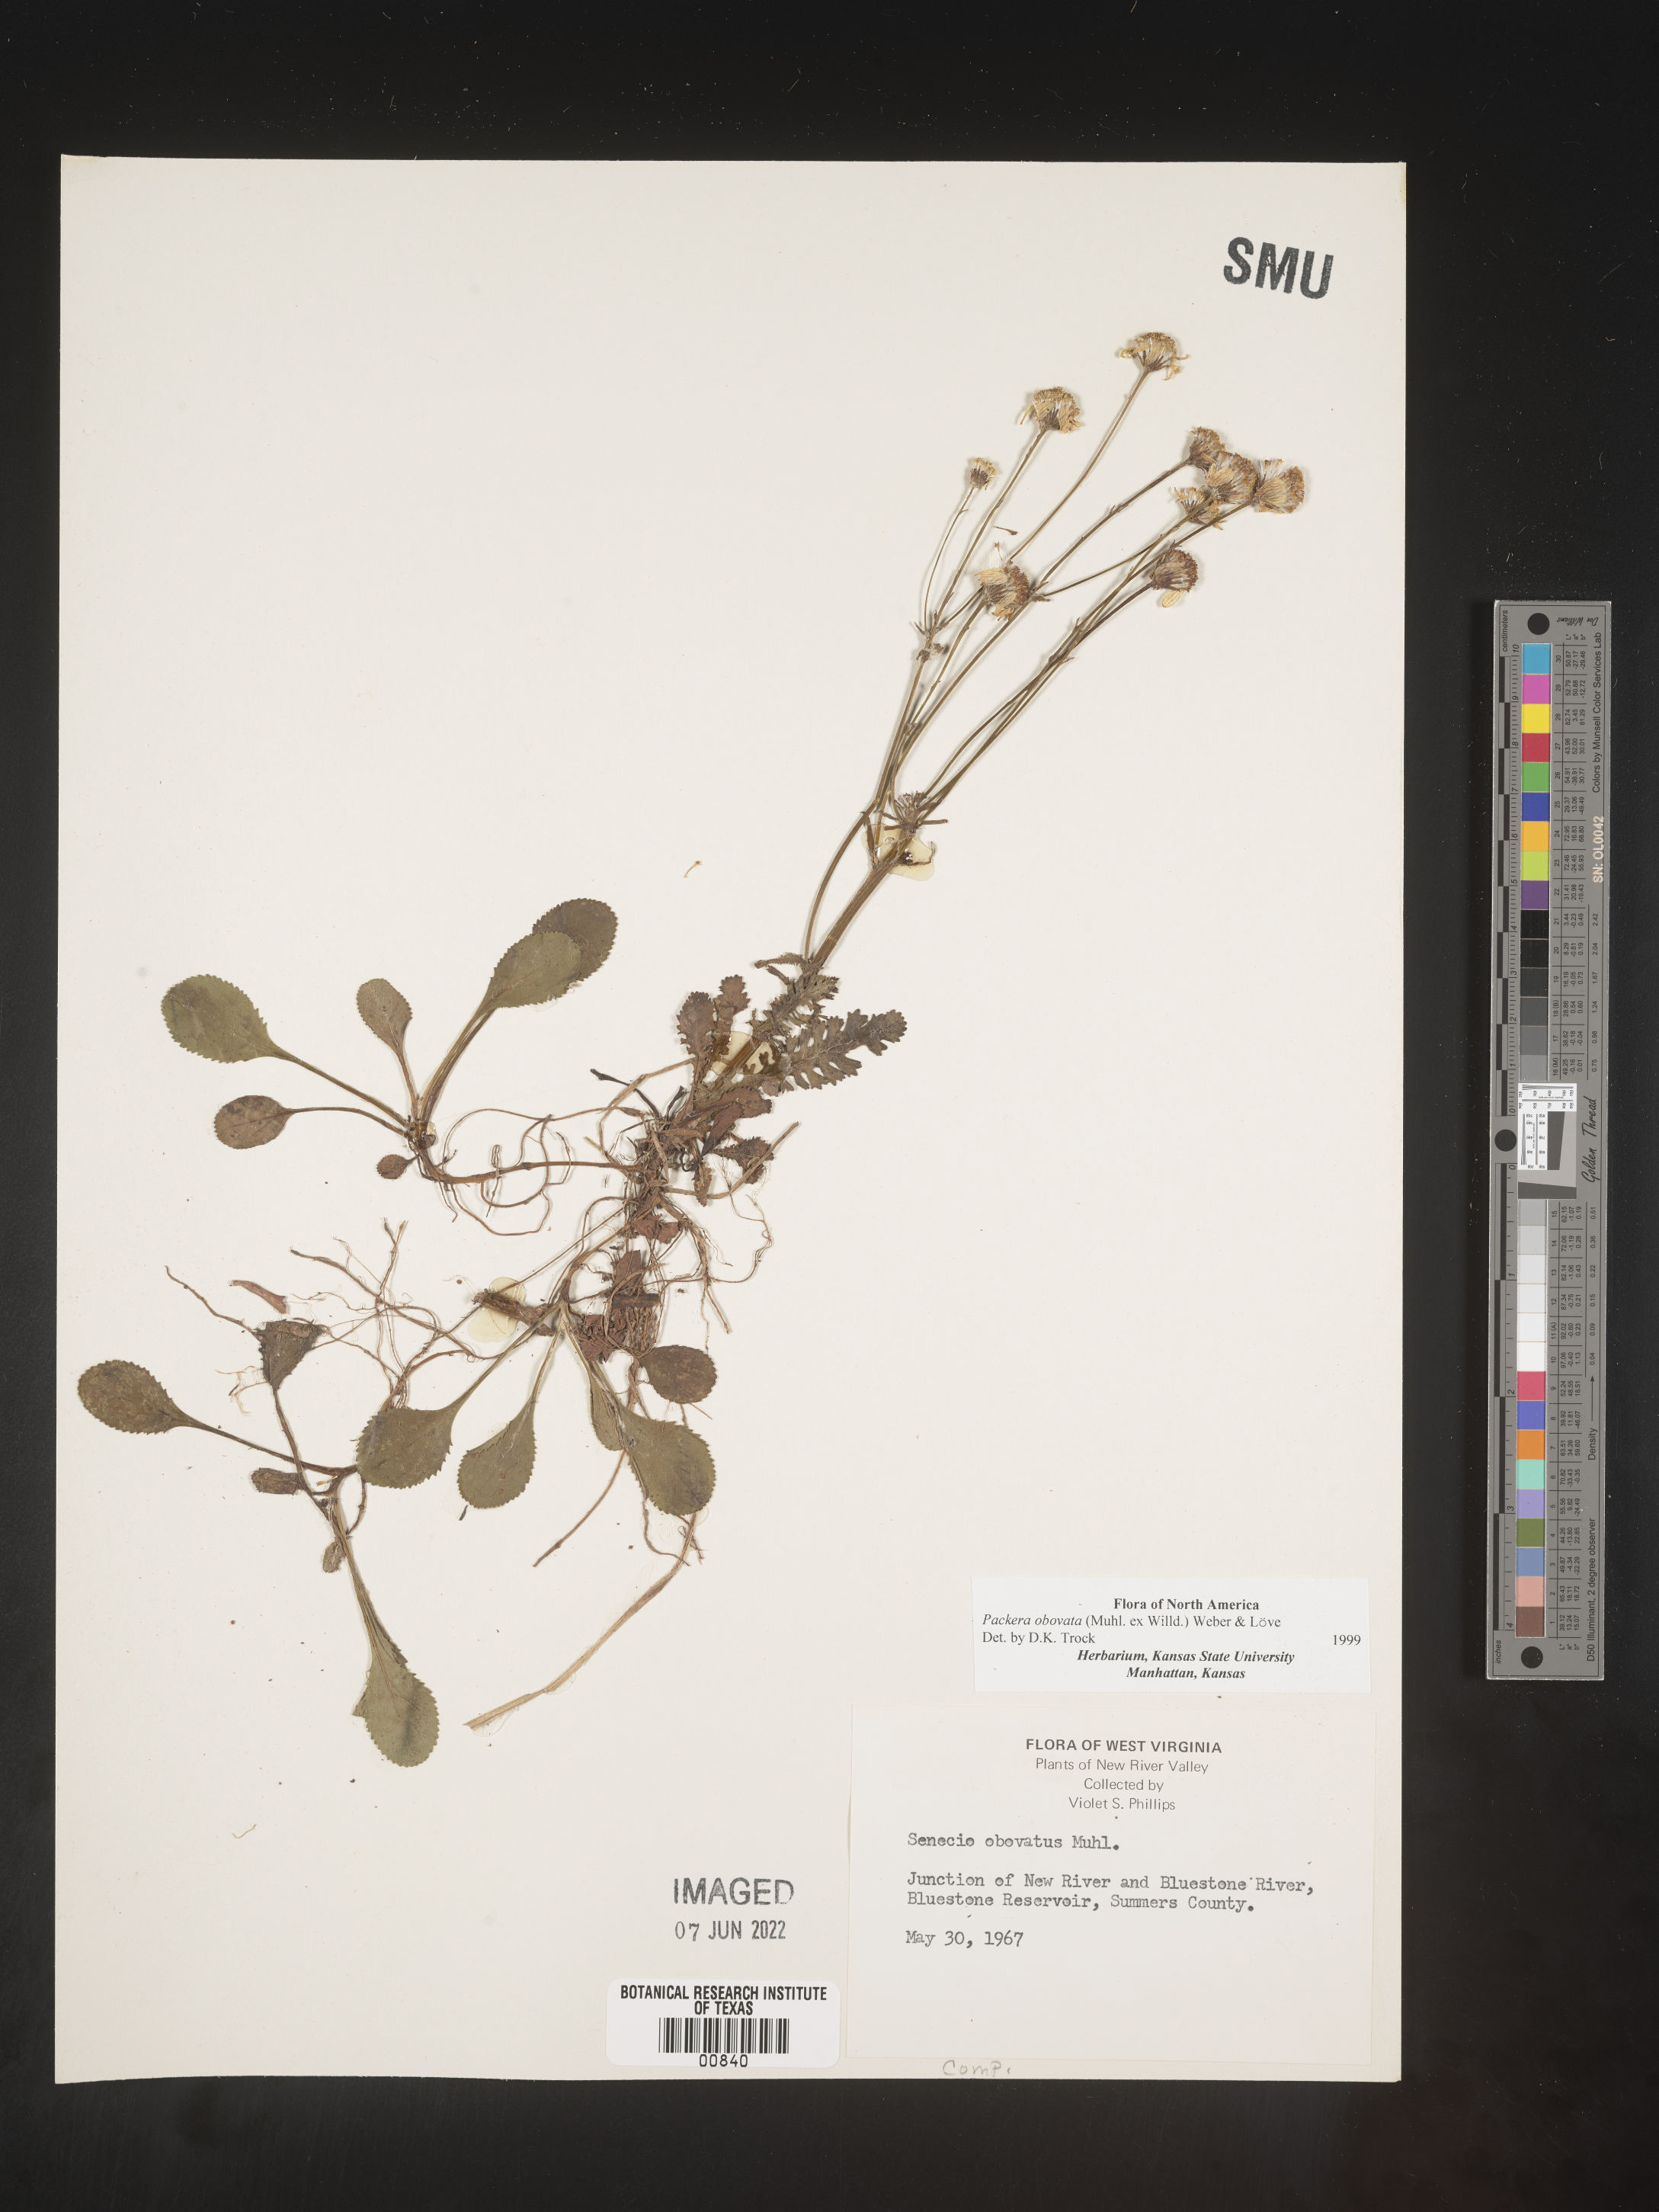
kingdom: Plantae
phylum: Tracheophyta
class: Magnoliopsida
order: Asterales
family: Asteraceae
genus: Packera
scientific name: Packera obovata
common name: Round-leaf ragwort
